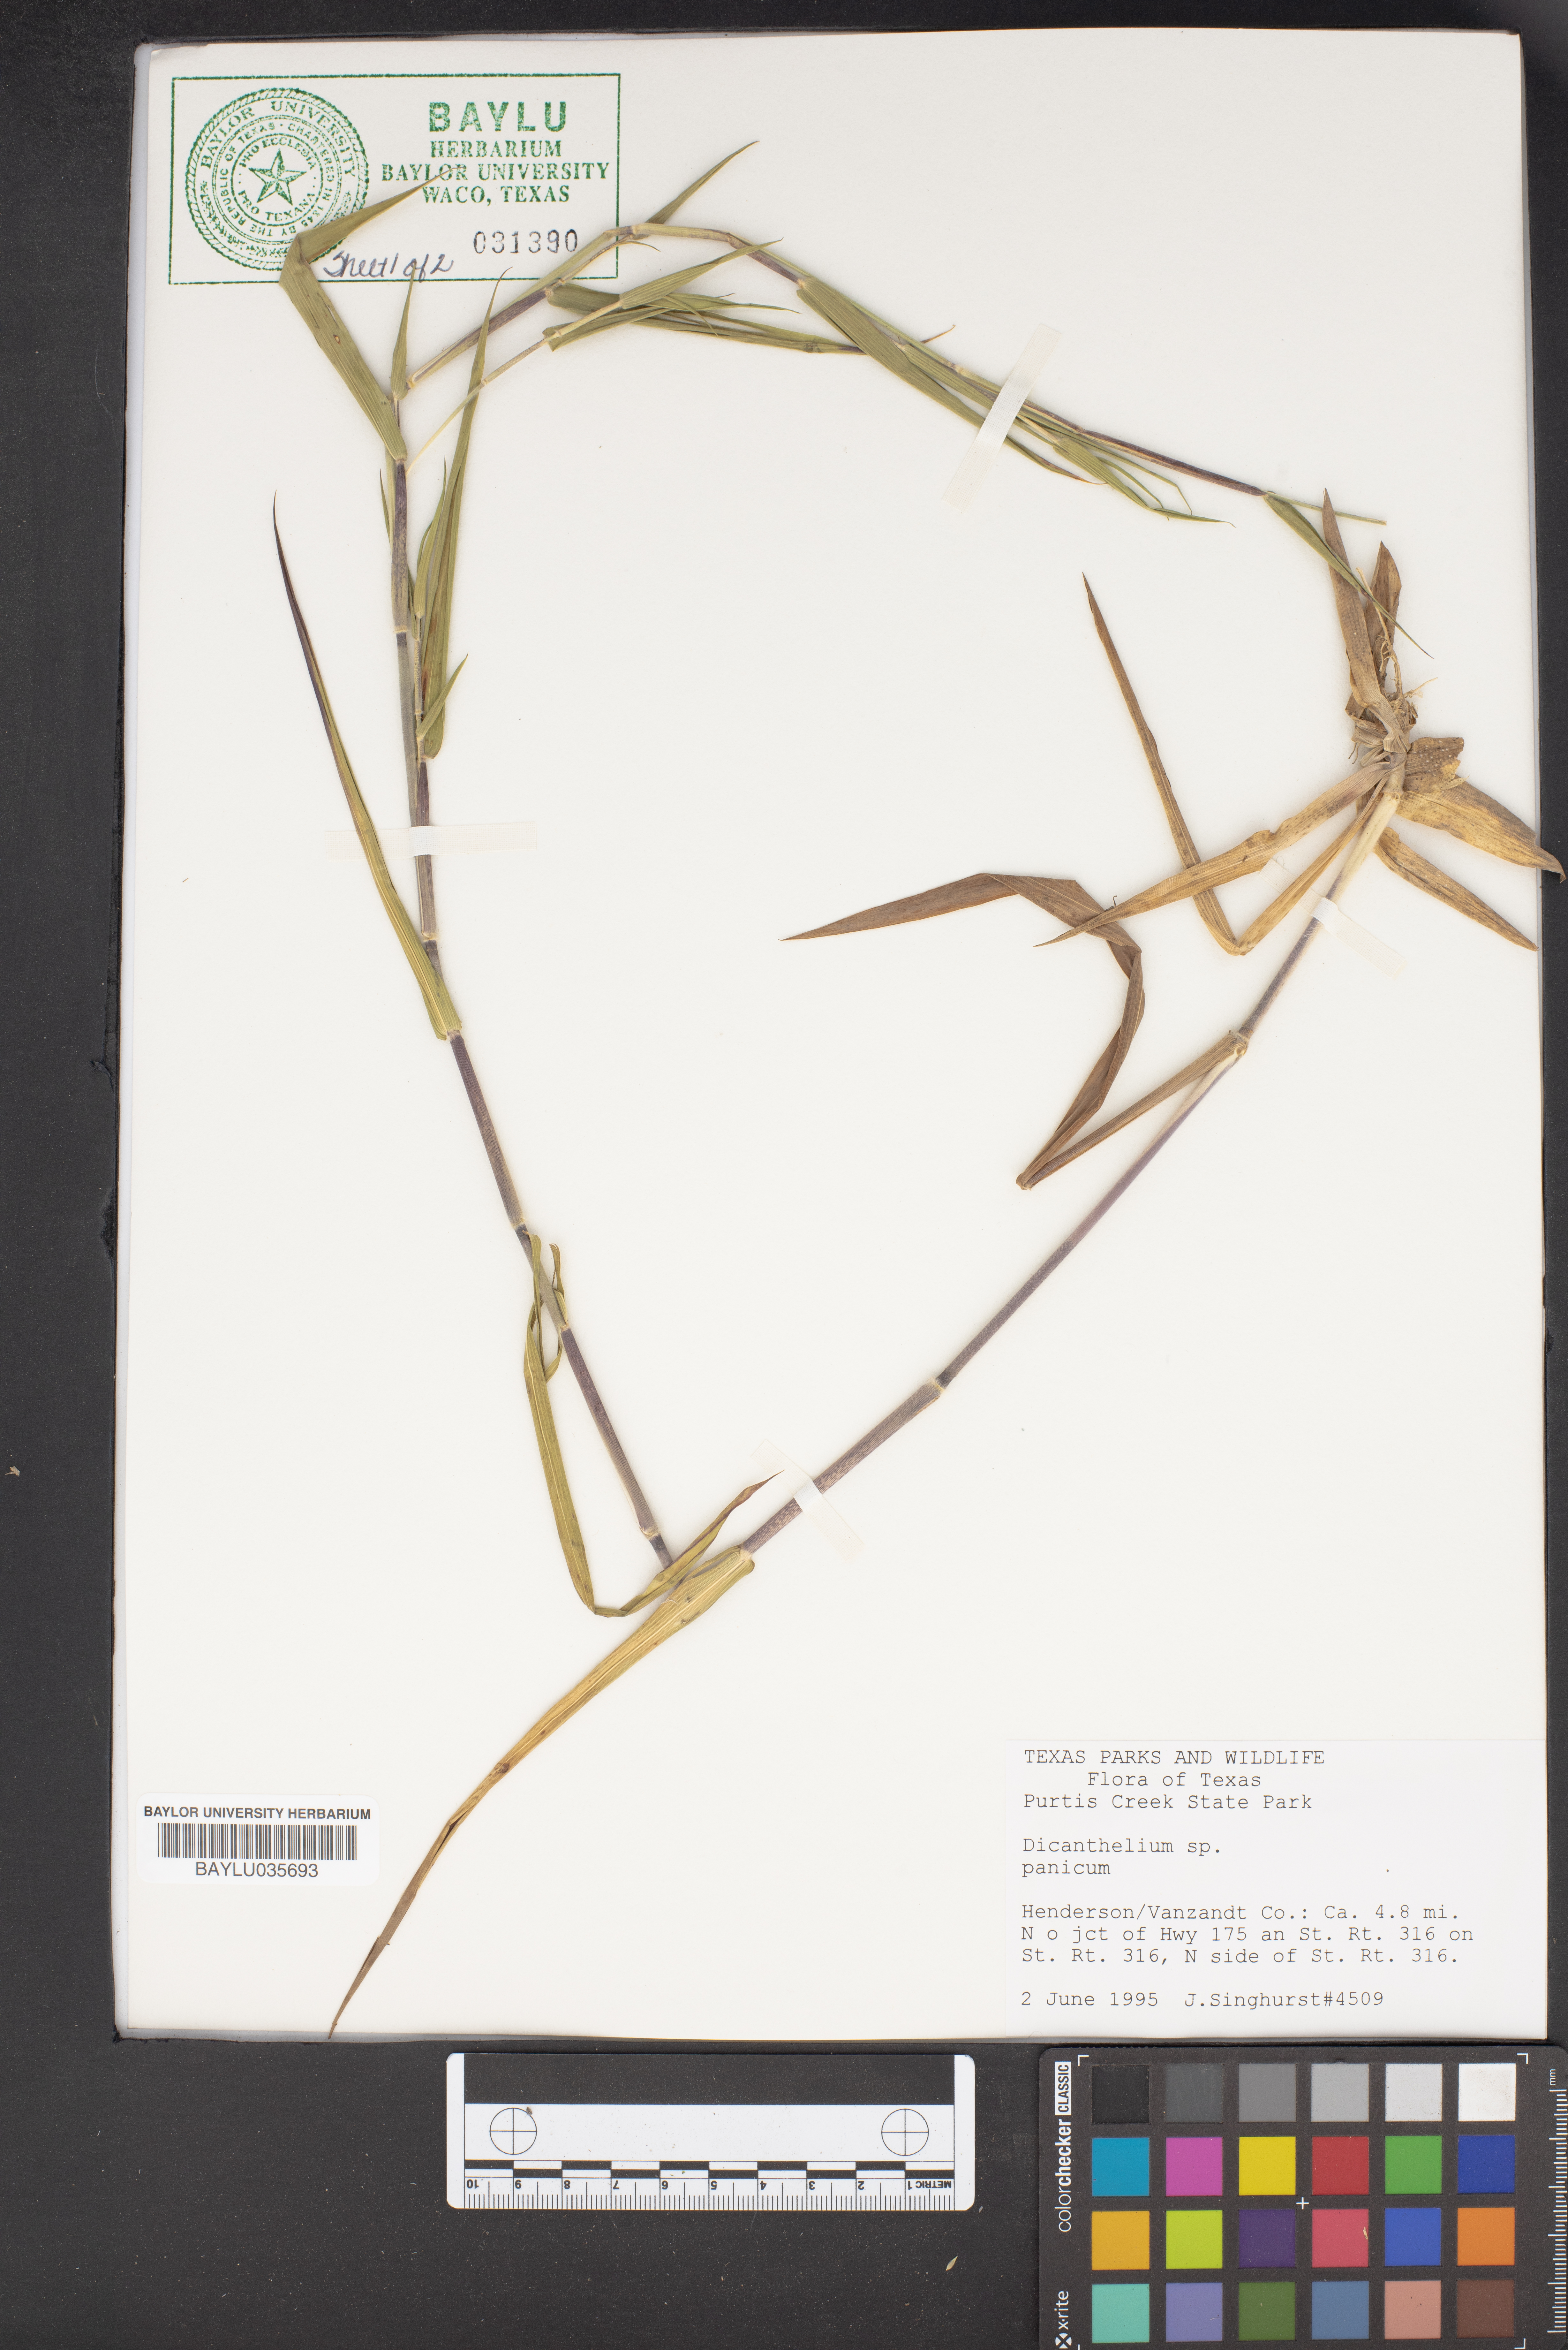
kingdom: Plantae
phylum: Tracheophyta
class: Liliopsida
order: Poales
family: Poaceae
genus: Dichanthelium
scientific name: Dichanthelium
